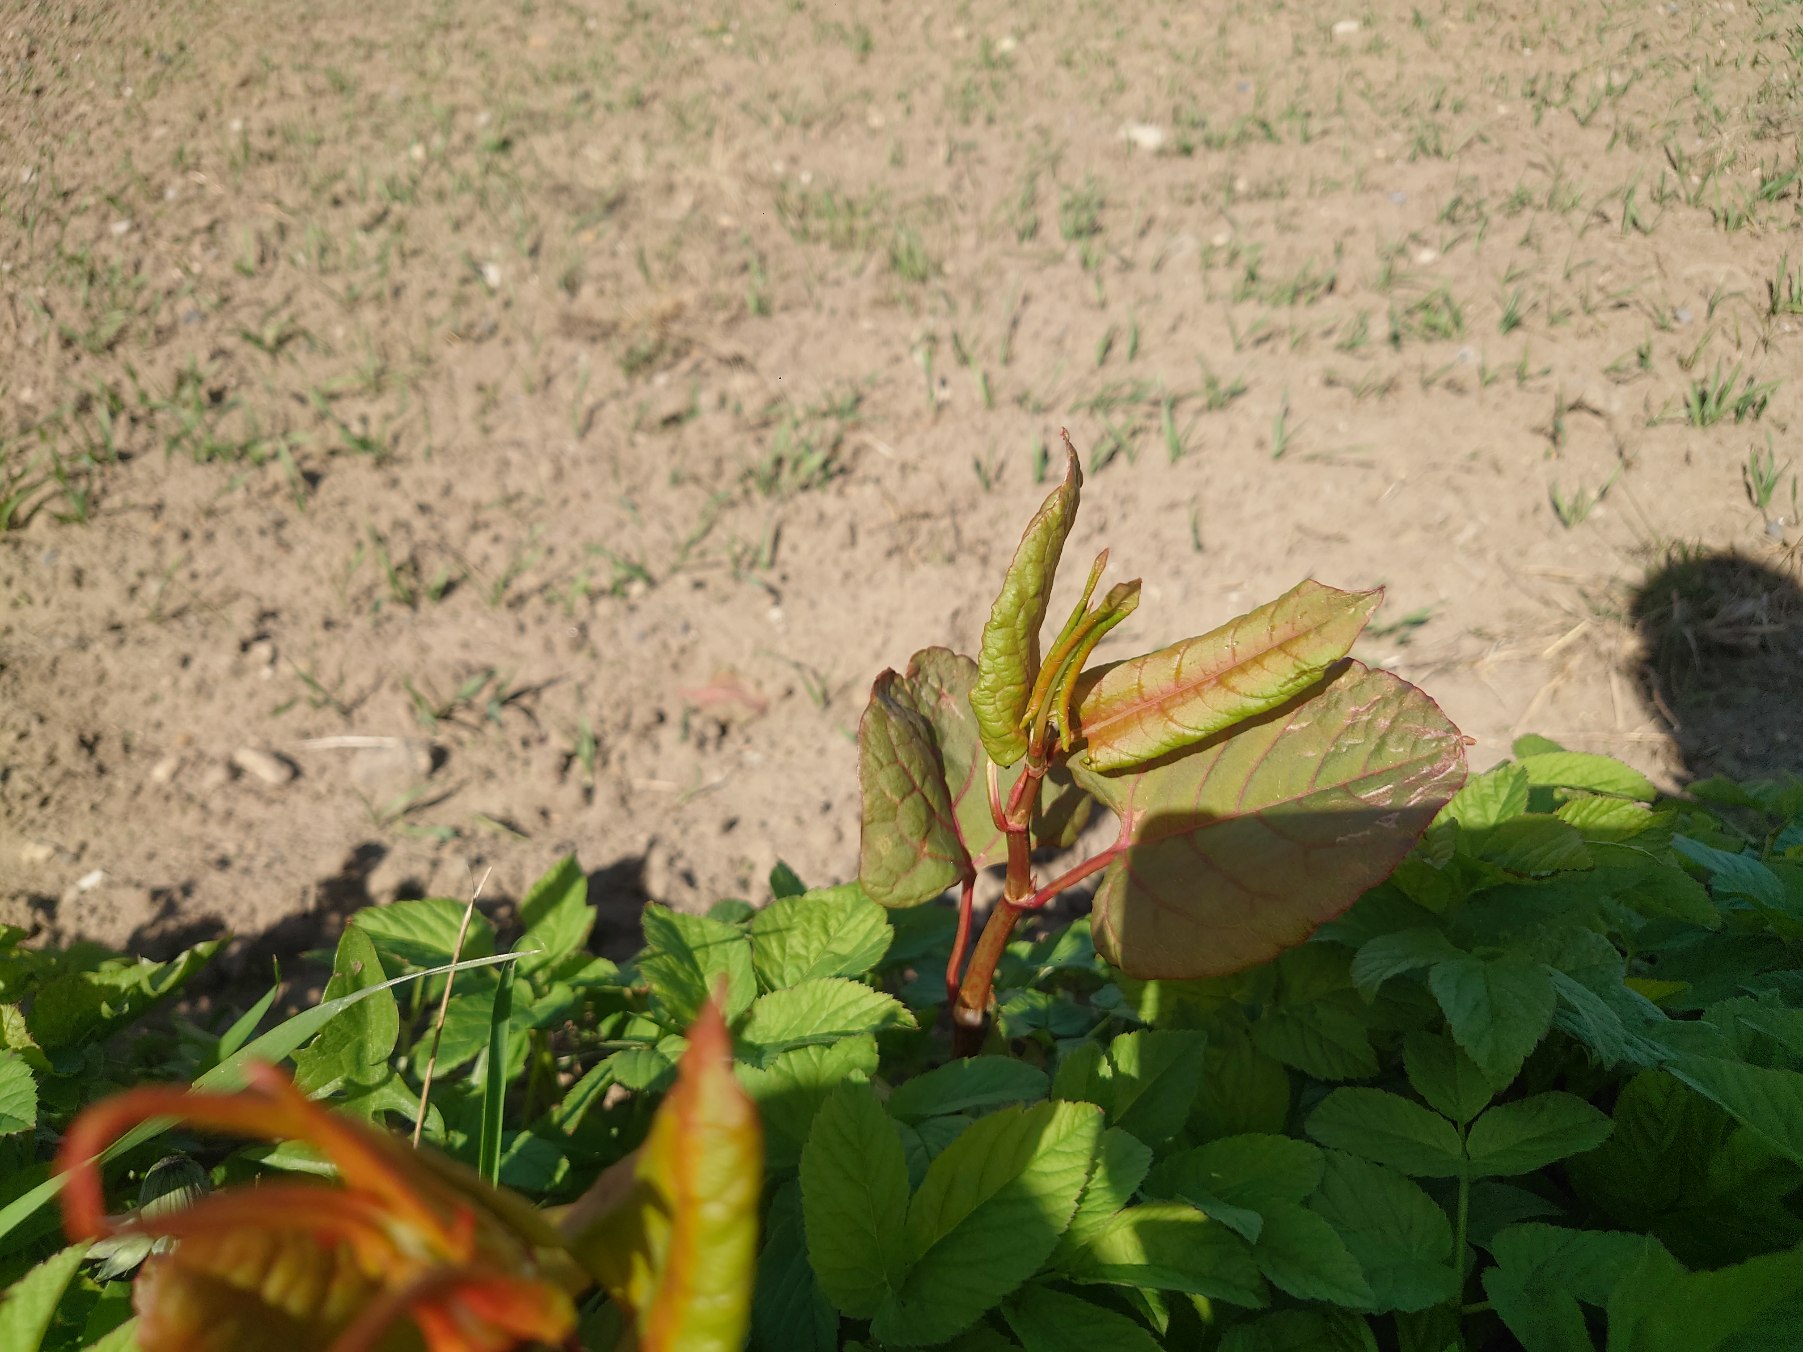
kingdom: Plantae
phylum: Tracheophyta
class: Magnoliopsida
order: Caryophyllales
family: Polygonaceae
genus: Reynoutria
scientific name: Reynoutria sachalinensis
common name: Kæmpe-pileurt
